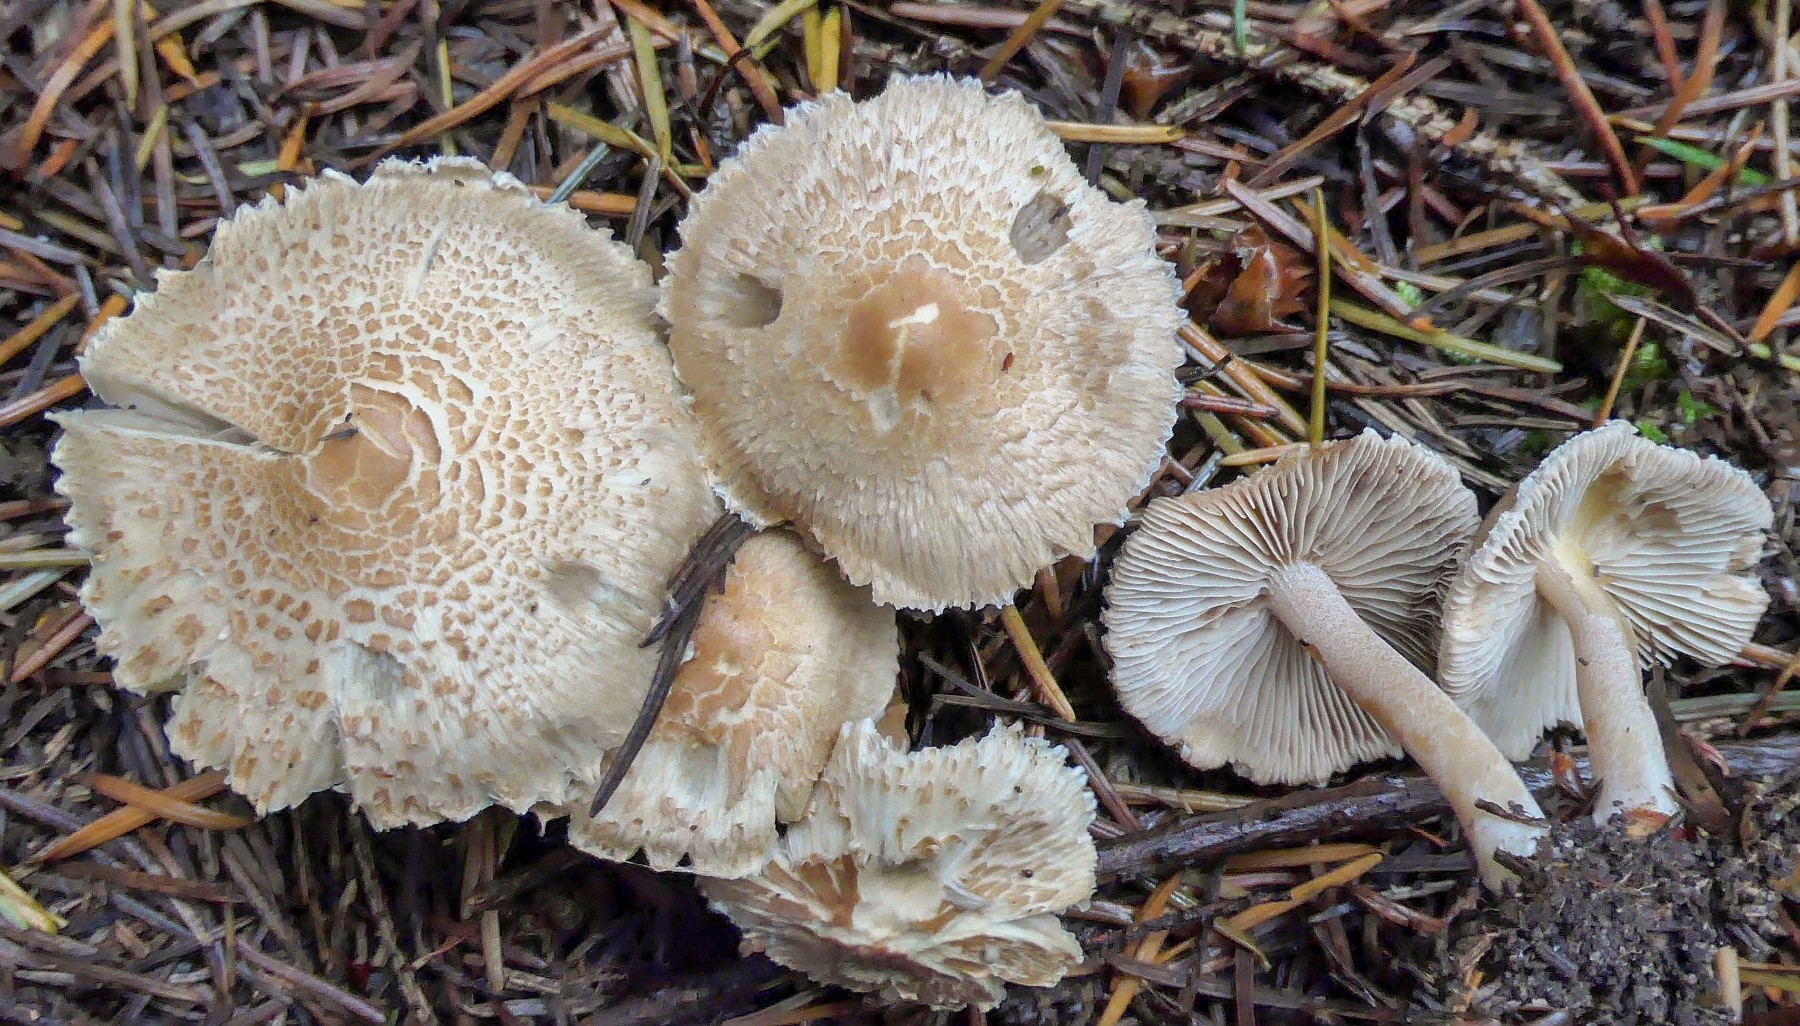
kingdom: Fungi
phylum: Basidiomycota
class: Agaricomycetes
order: Agaricales
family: Inocybaceae
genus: Inocybe
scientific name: Inocybe sindonia
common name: bleg trævlhat
